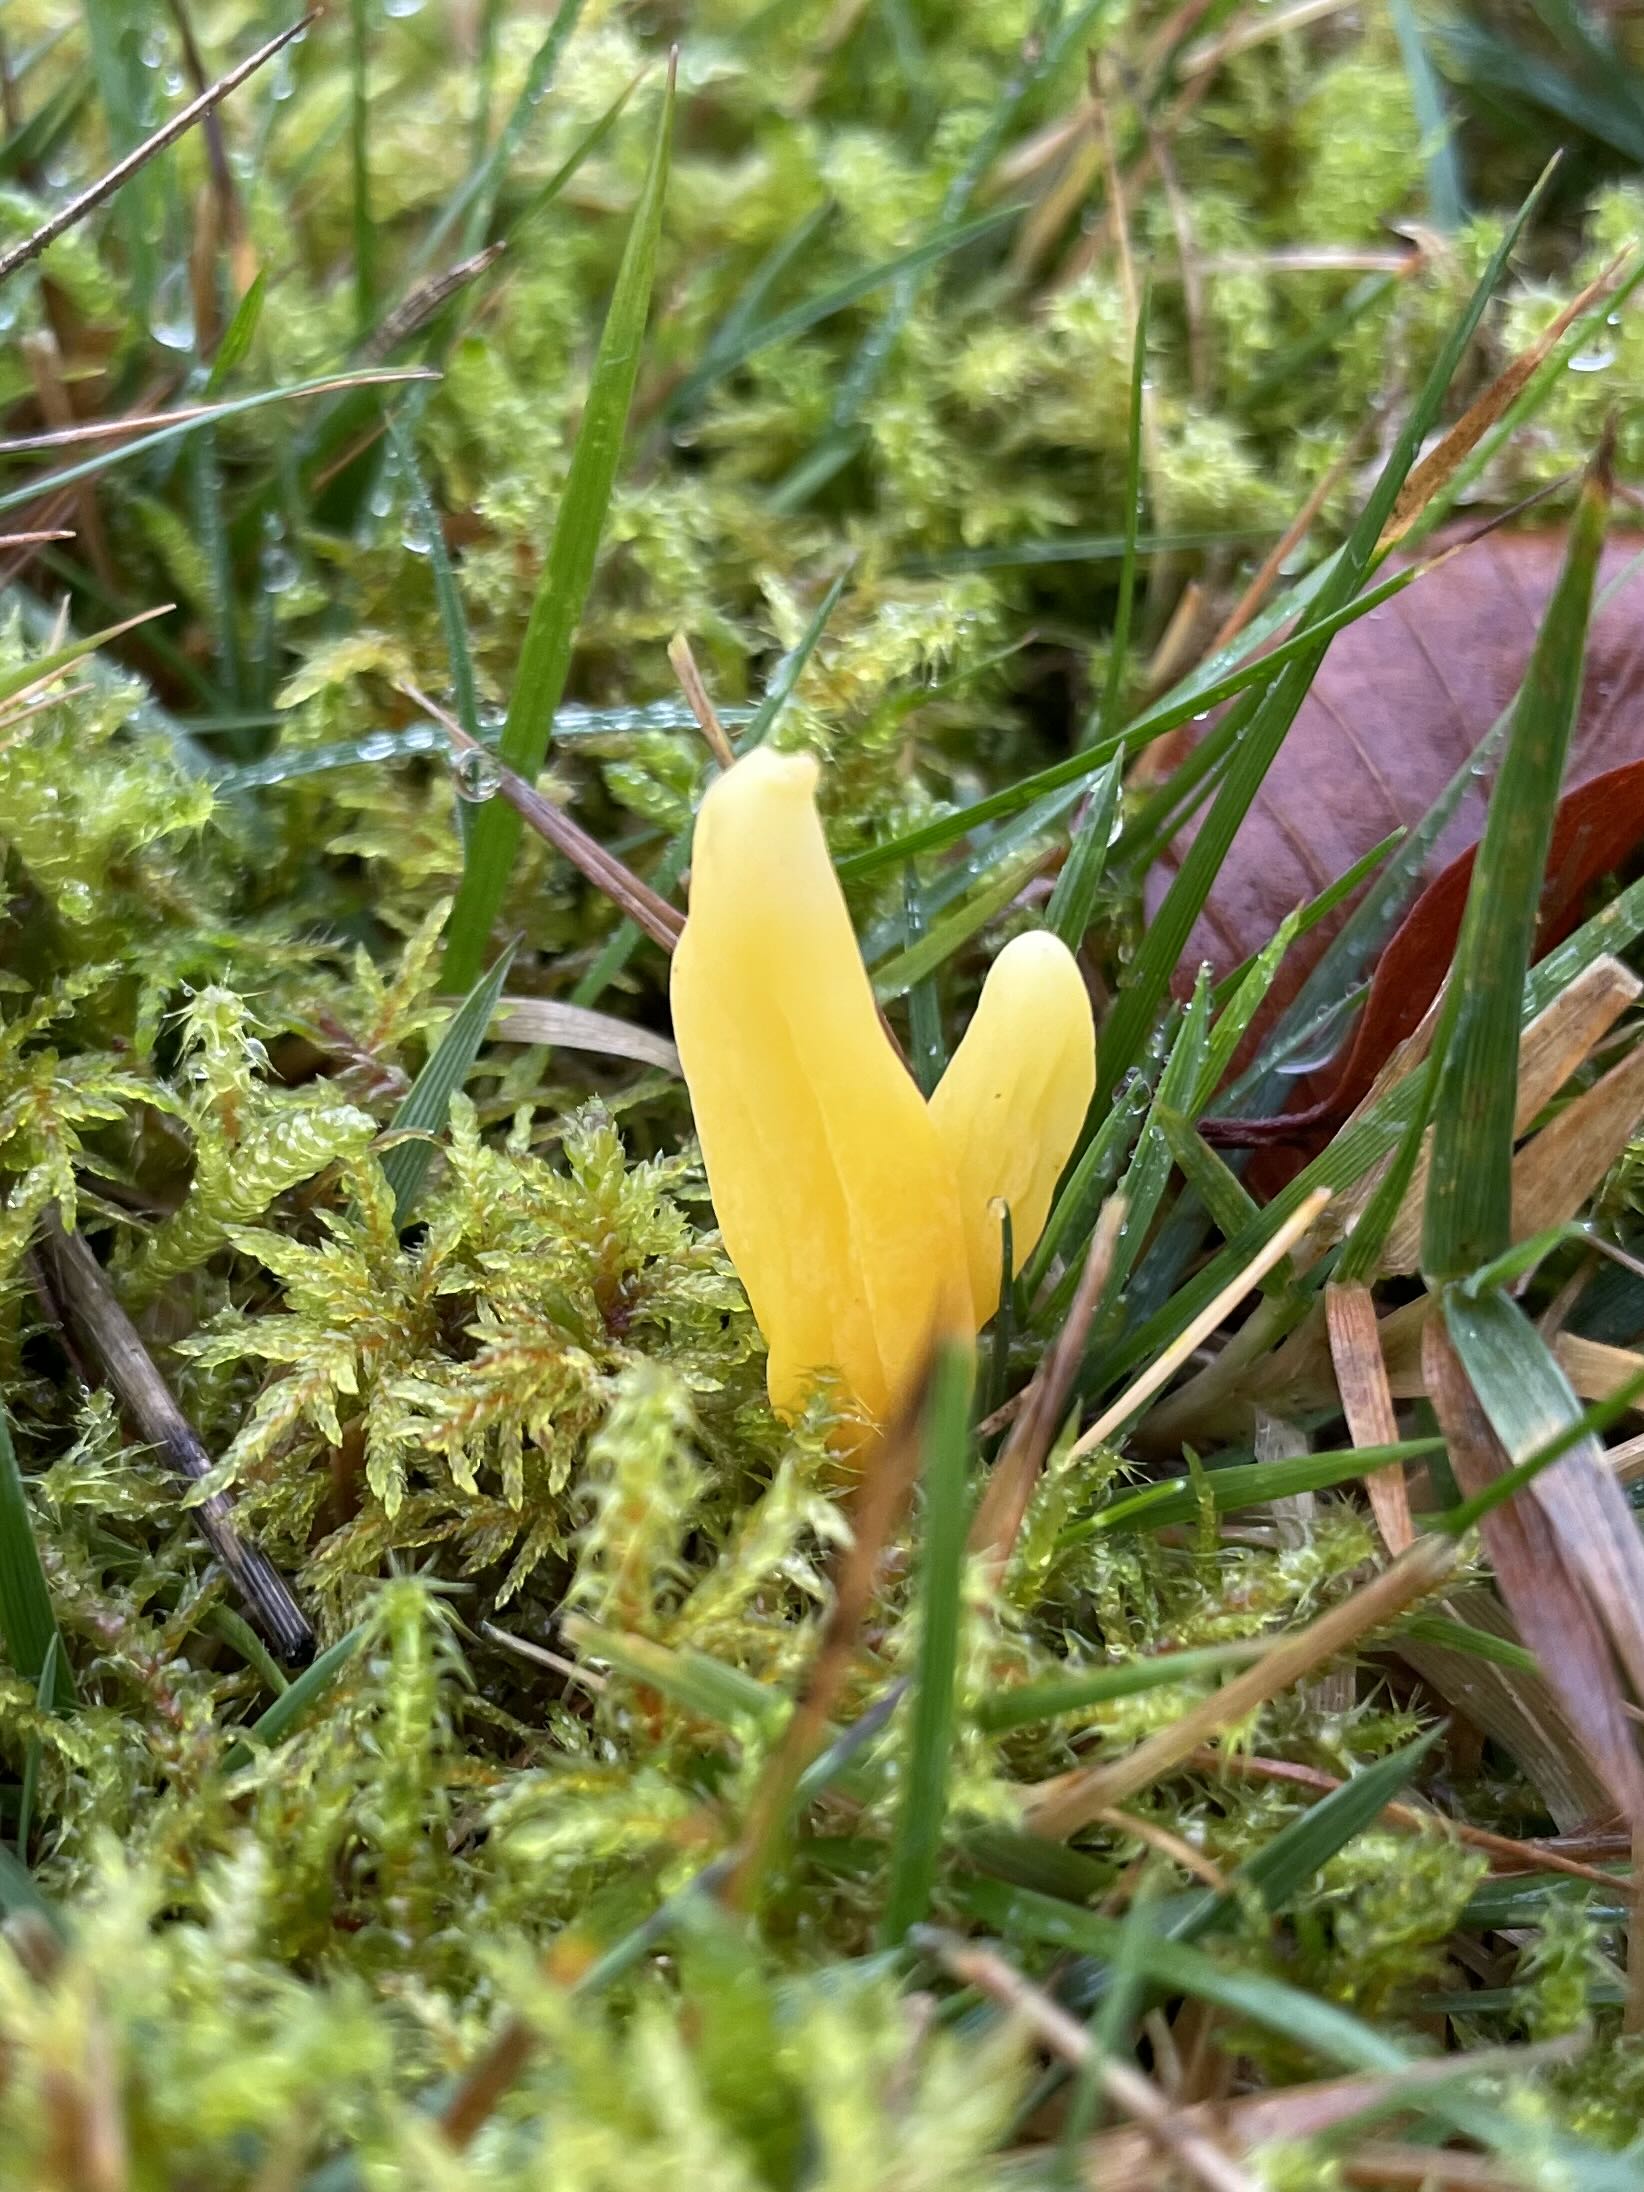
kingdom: Fungi
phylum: Basidiomycota
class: Agaricomycetes
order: Agaricales
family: Clavariaceae
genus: Clavulinopsis
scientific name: Clavulinopsis
